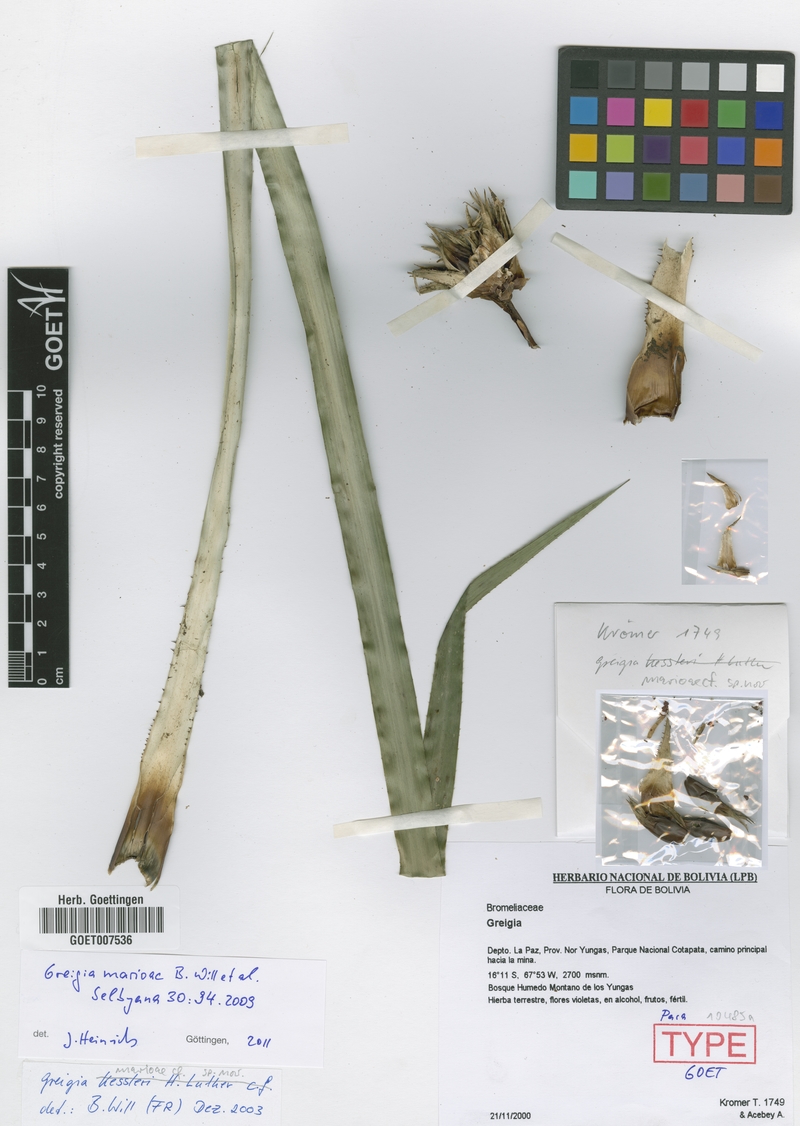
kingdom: Plantae
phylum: Tracheophyta
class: Liliopsida
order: Poales
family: Bromeliaceae
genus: Greigia
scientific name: Greigia marioi
